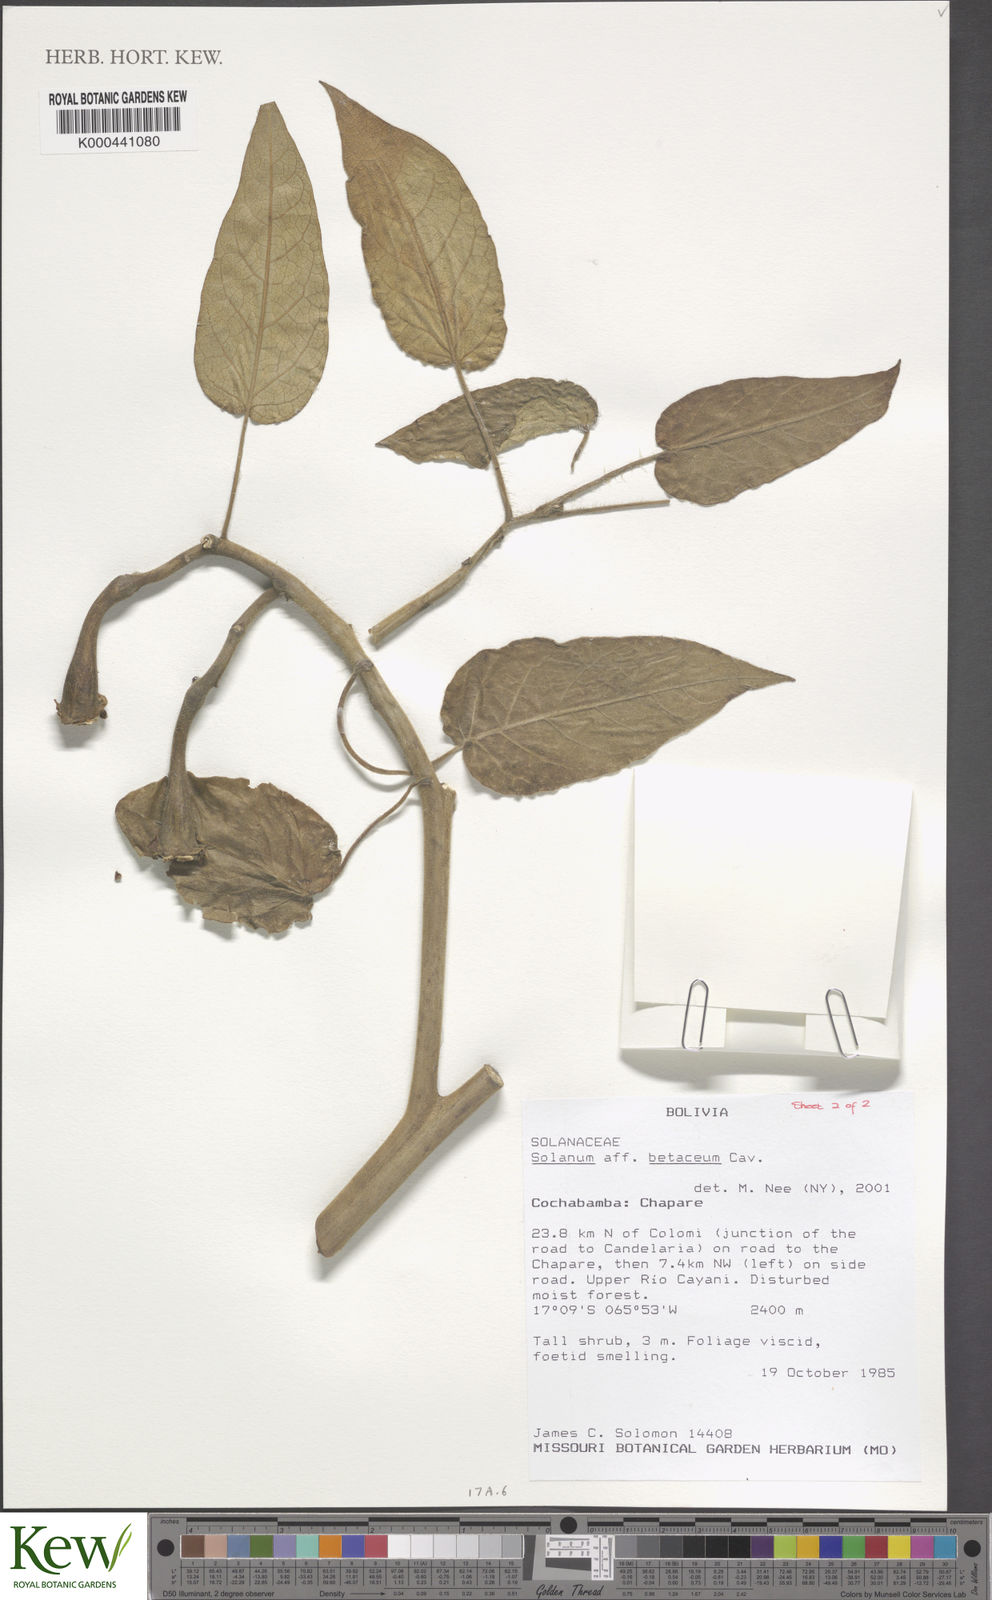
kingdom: Plantae
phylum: Tracheophyta
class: Magnoliopsida
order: Solanales
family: Solanaceae
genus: Solanum
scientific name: Solanum betaceum
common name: Tamarillo
